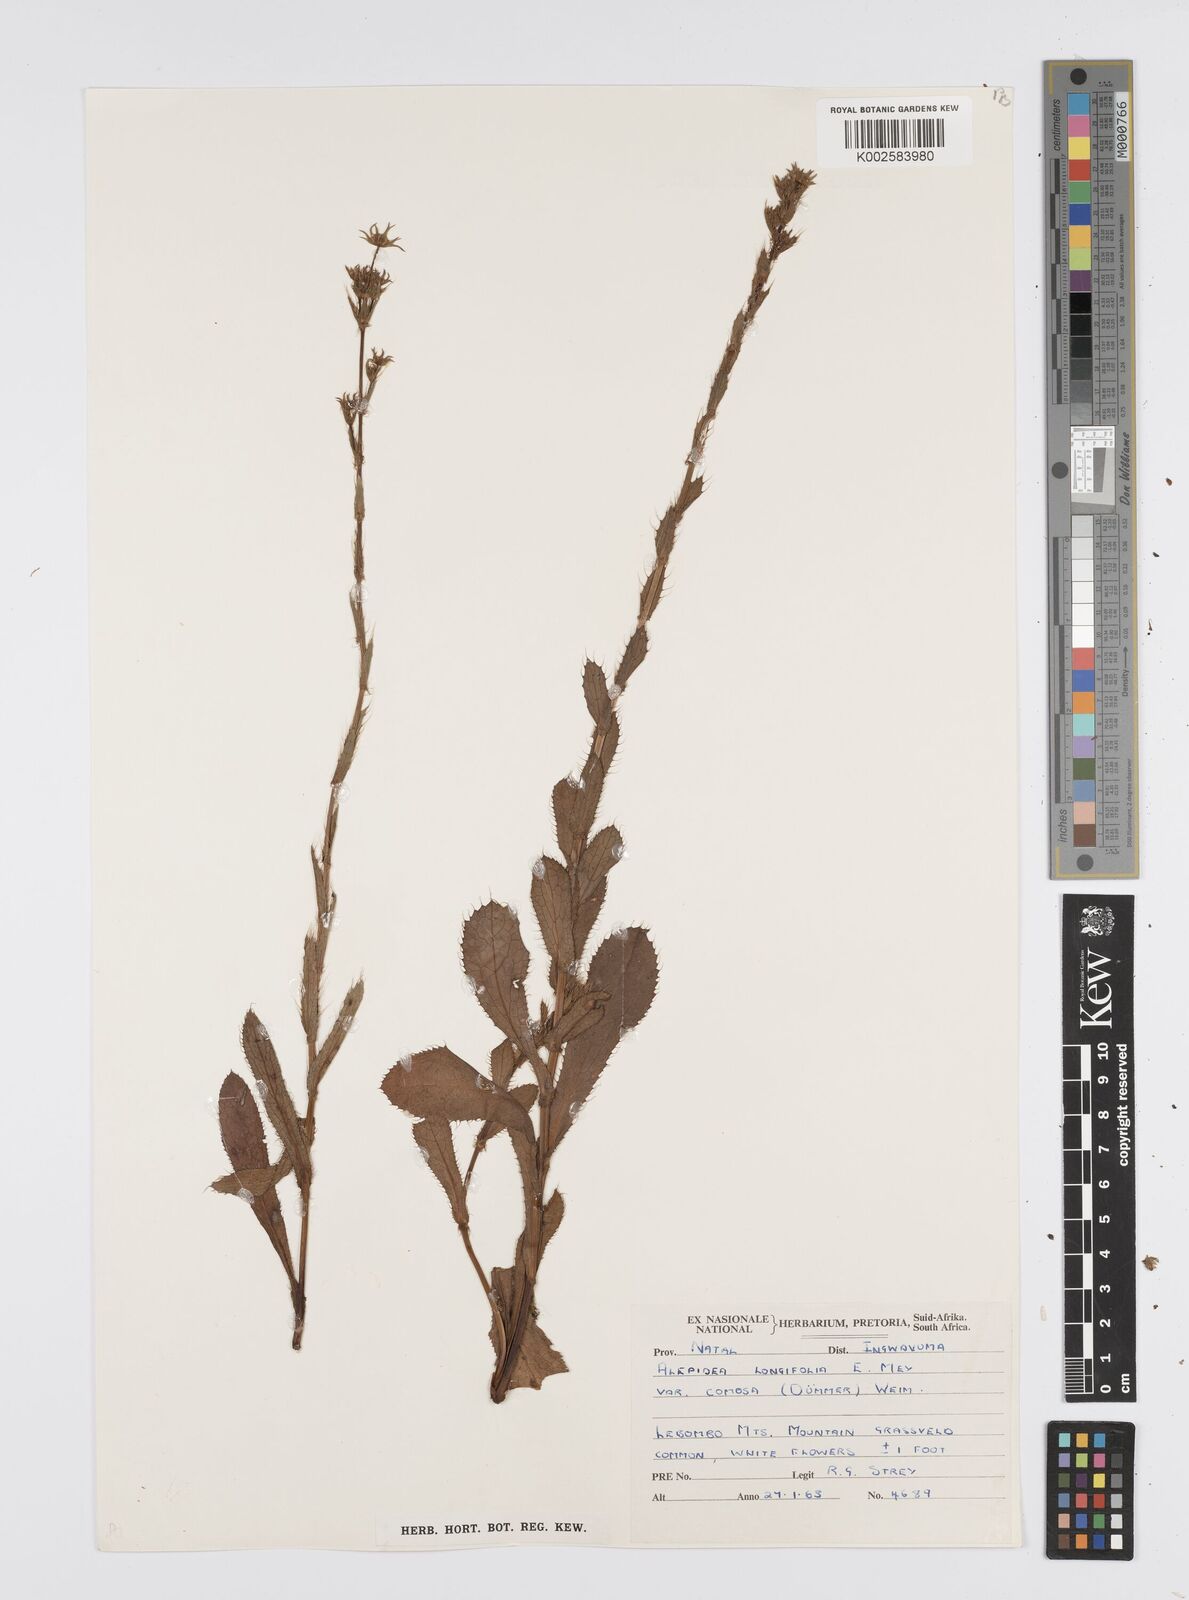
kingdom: Plantae
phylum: Tracheophyta
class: Magnoliopsida
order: Apiales
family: Apiaceae
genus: Alepidea
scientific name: Alepidea
